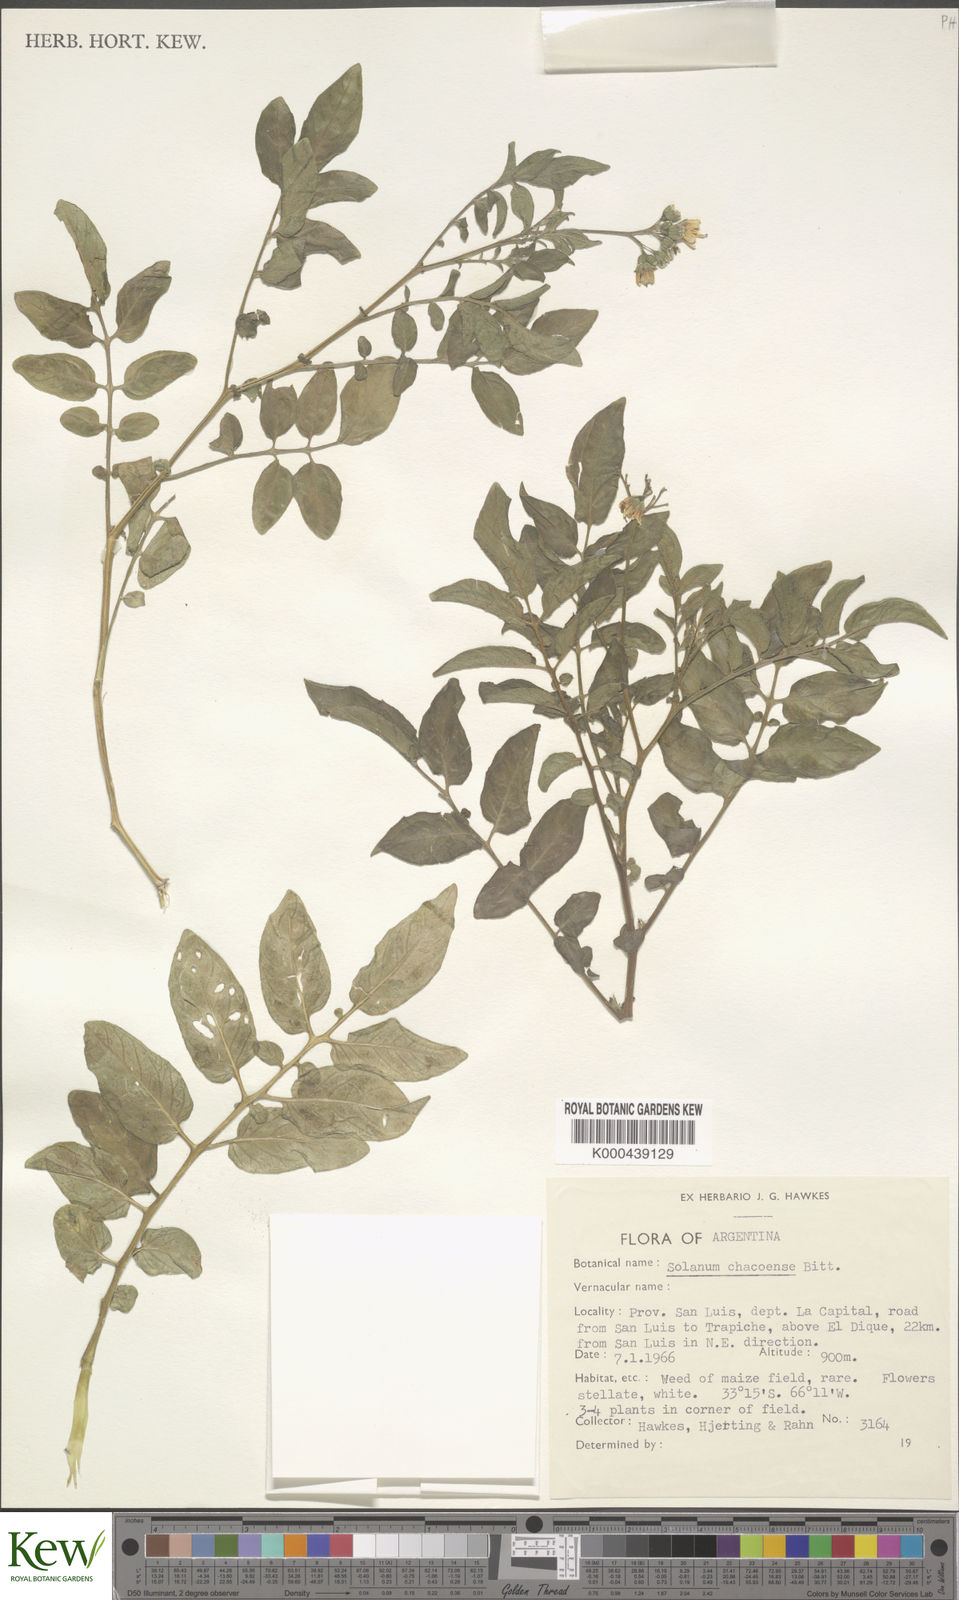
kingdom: Plantae
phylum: Tracheophyta
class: Magnoliopsida
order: Solanales
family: Solanaceae
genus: Solanum
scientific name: Solanum chacoense
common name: Chaco potato
